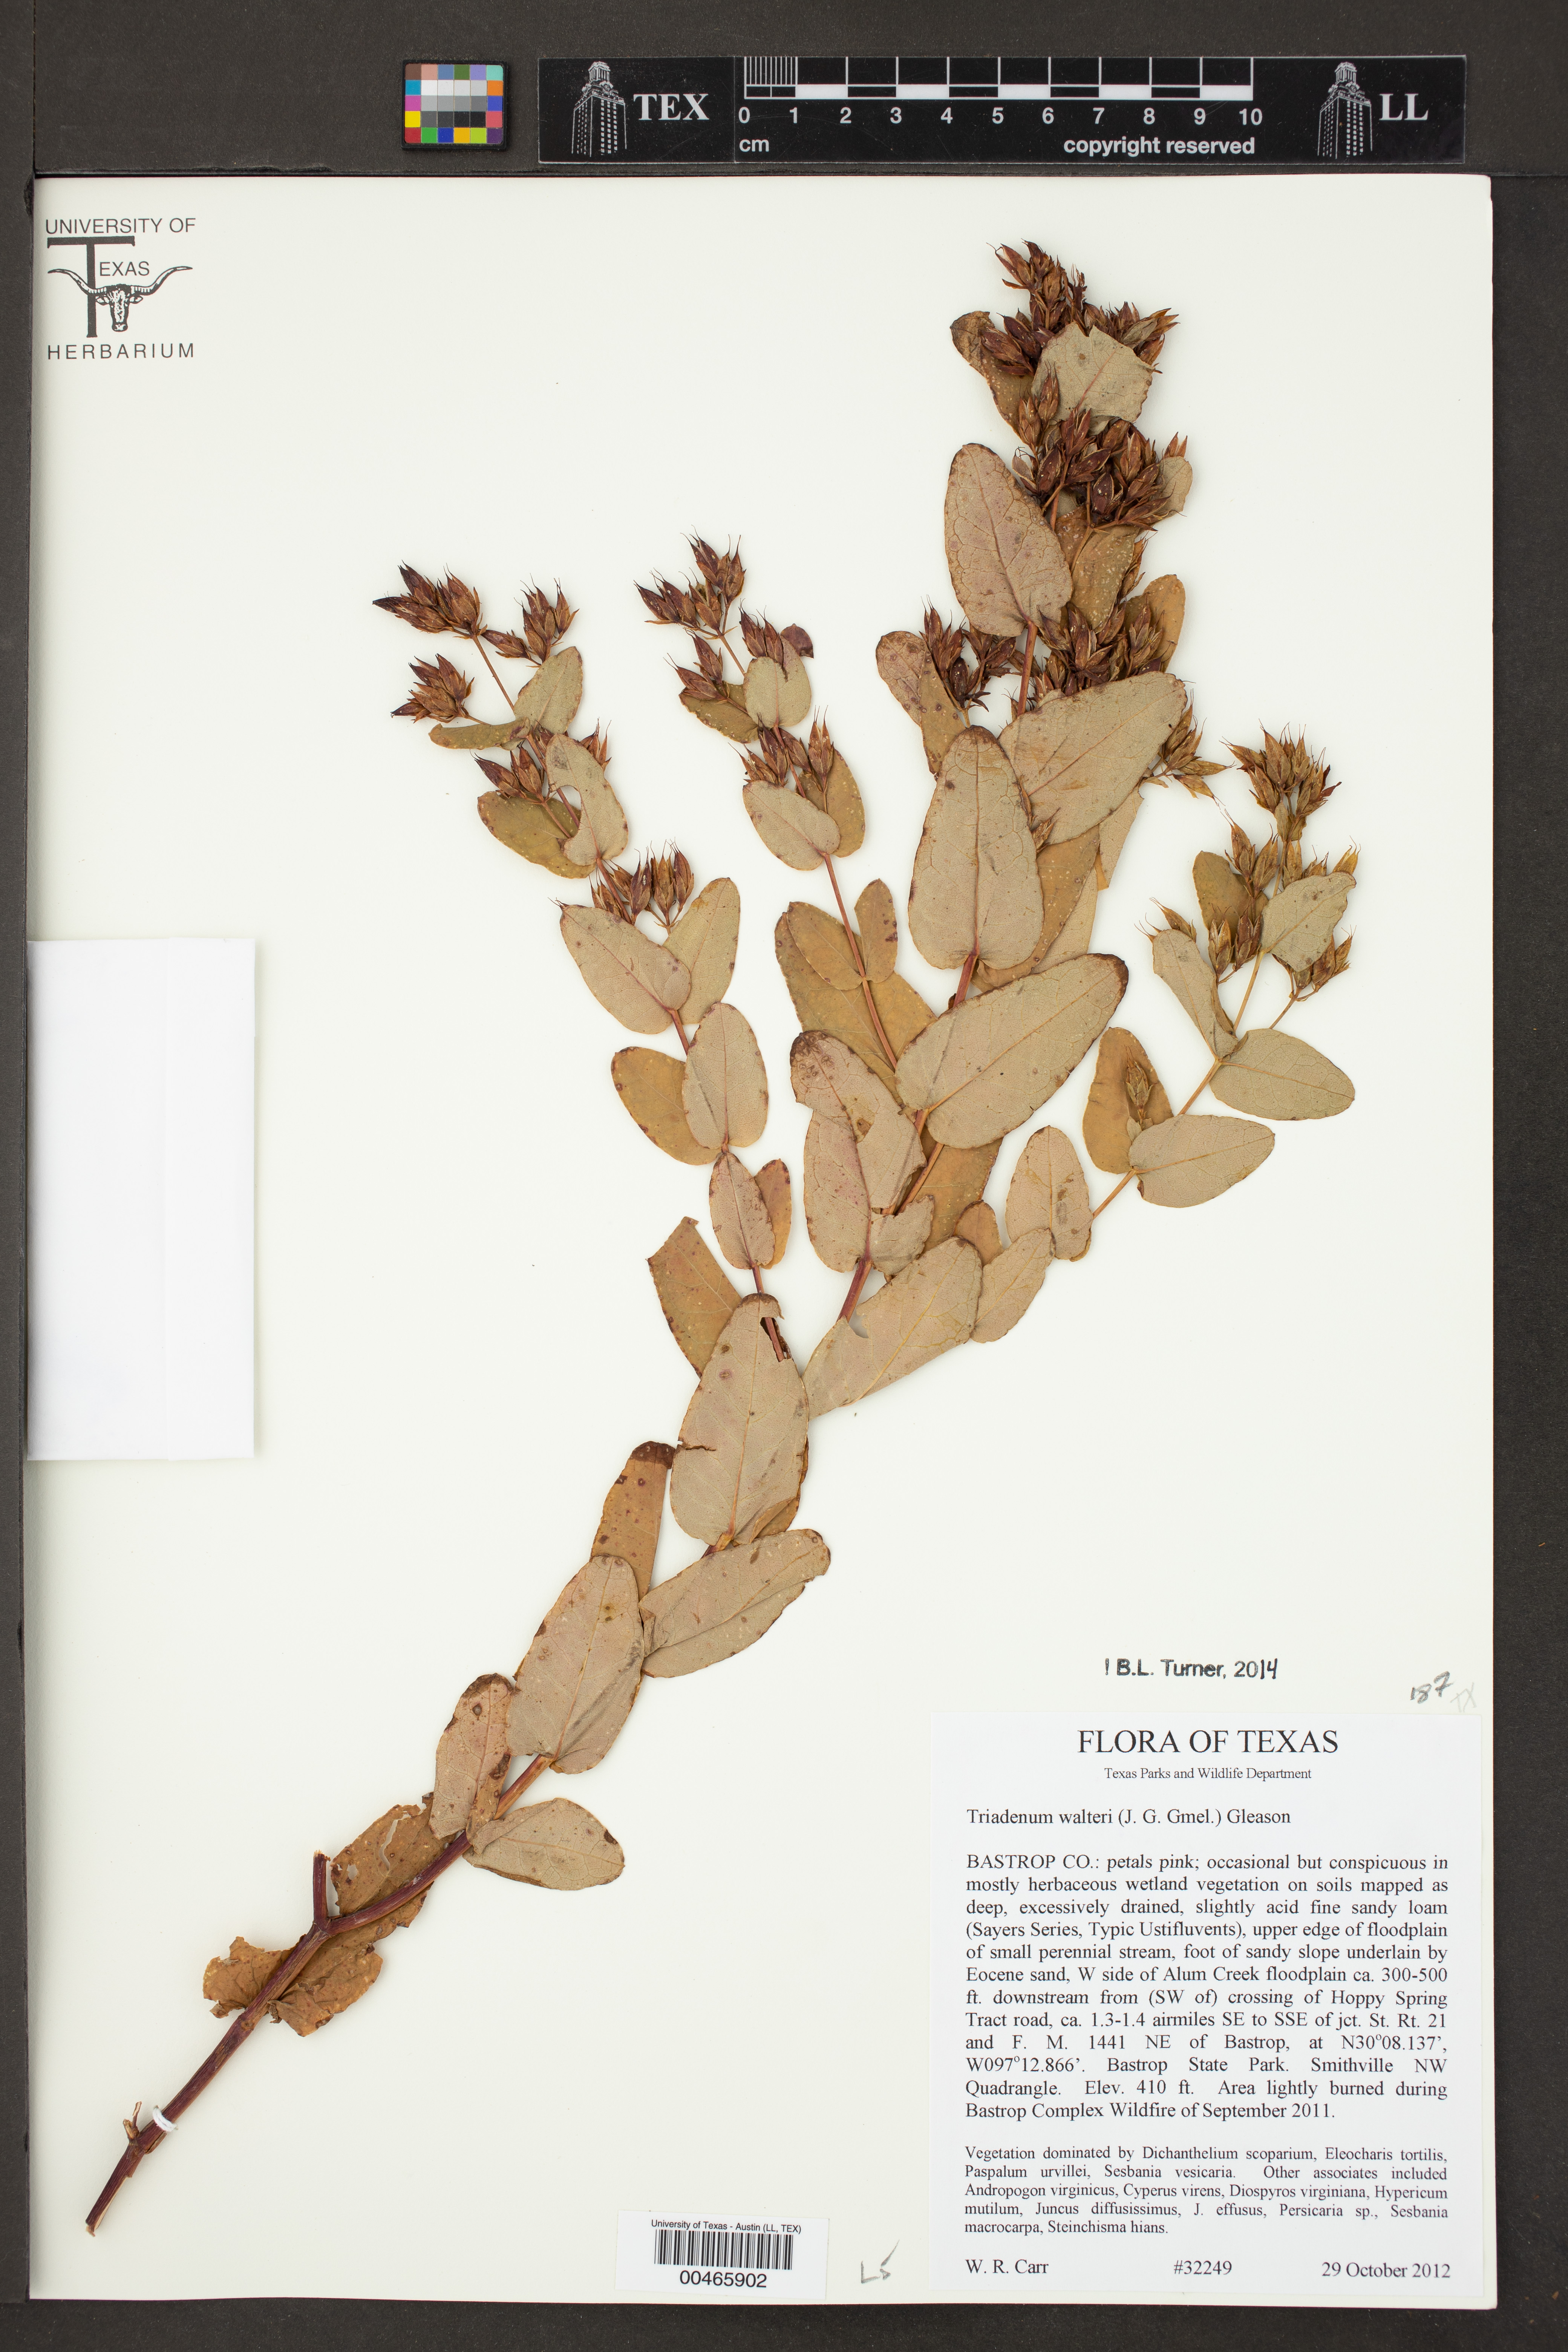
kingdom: Plantae
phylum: Tracheophyta
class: Magnoliopsida
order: Malpighiales
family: Hypericaceae
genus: Triadenum
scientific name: Triadenum walteri
